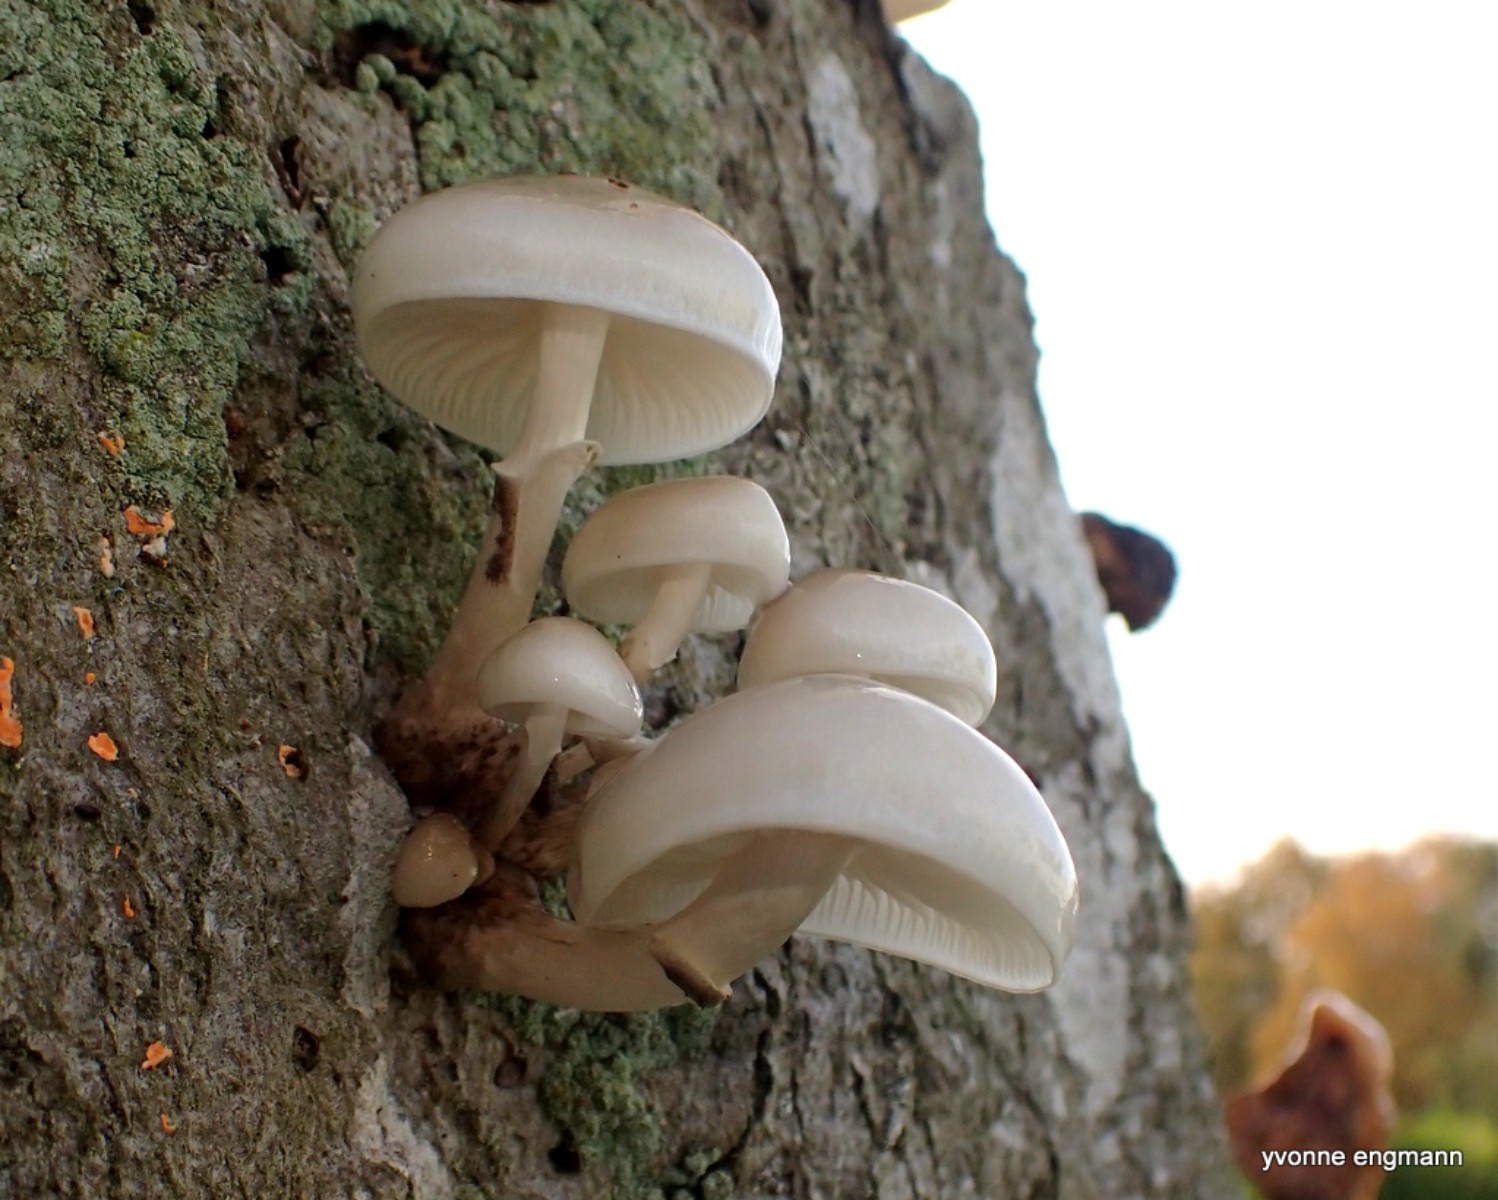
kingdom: Fungi
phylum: Basidiomycota
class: Agaricomycetes
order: Agaricales
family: Physalacriaceae
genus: Mucidula
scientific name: Mucidula mucida
